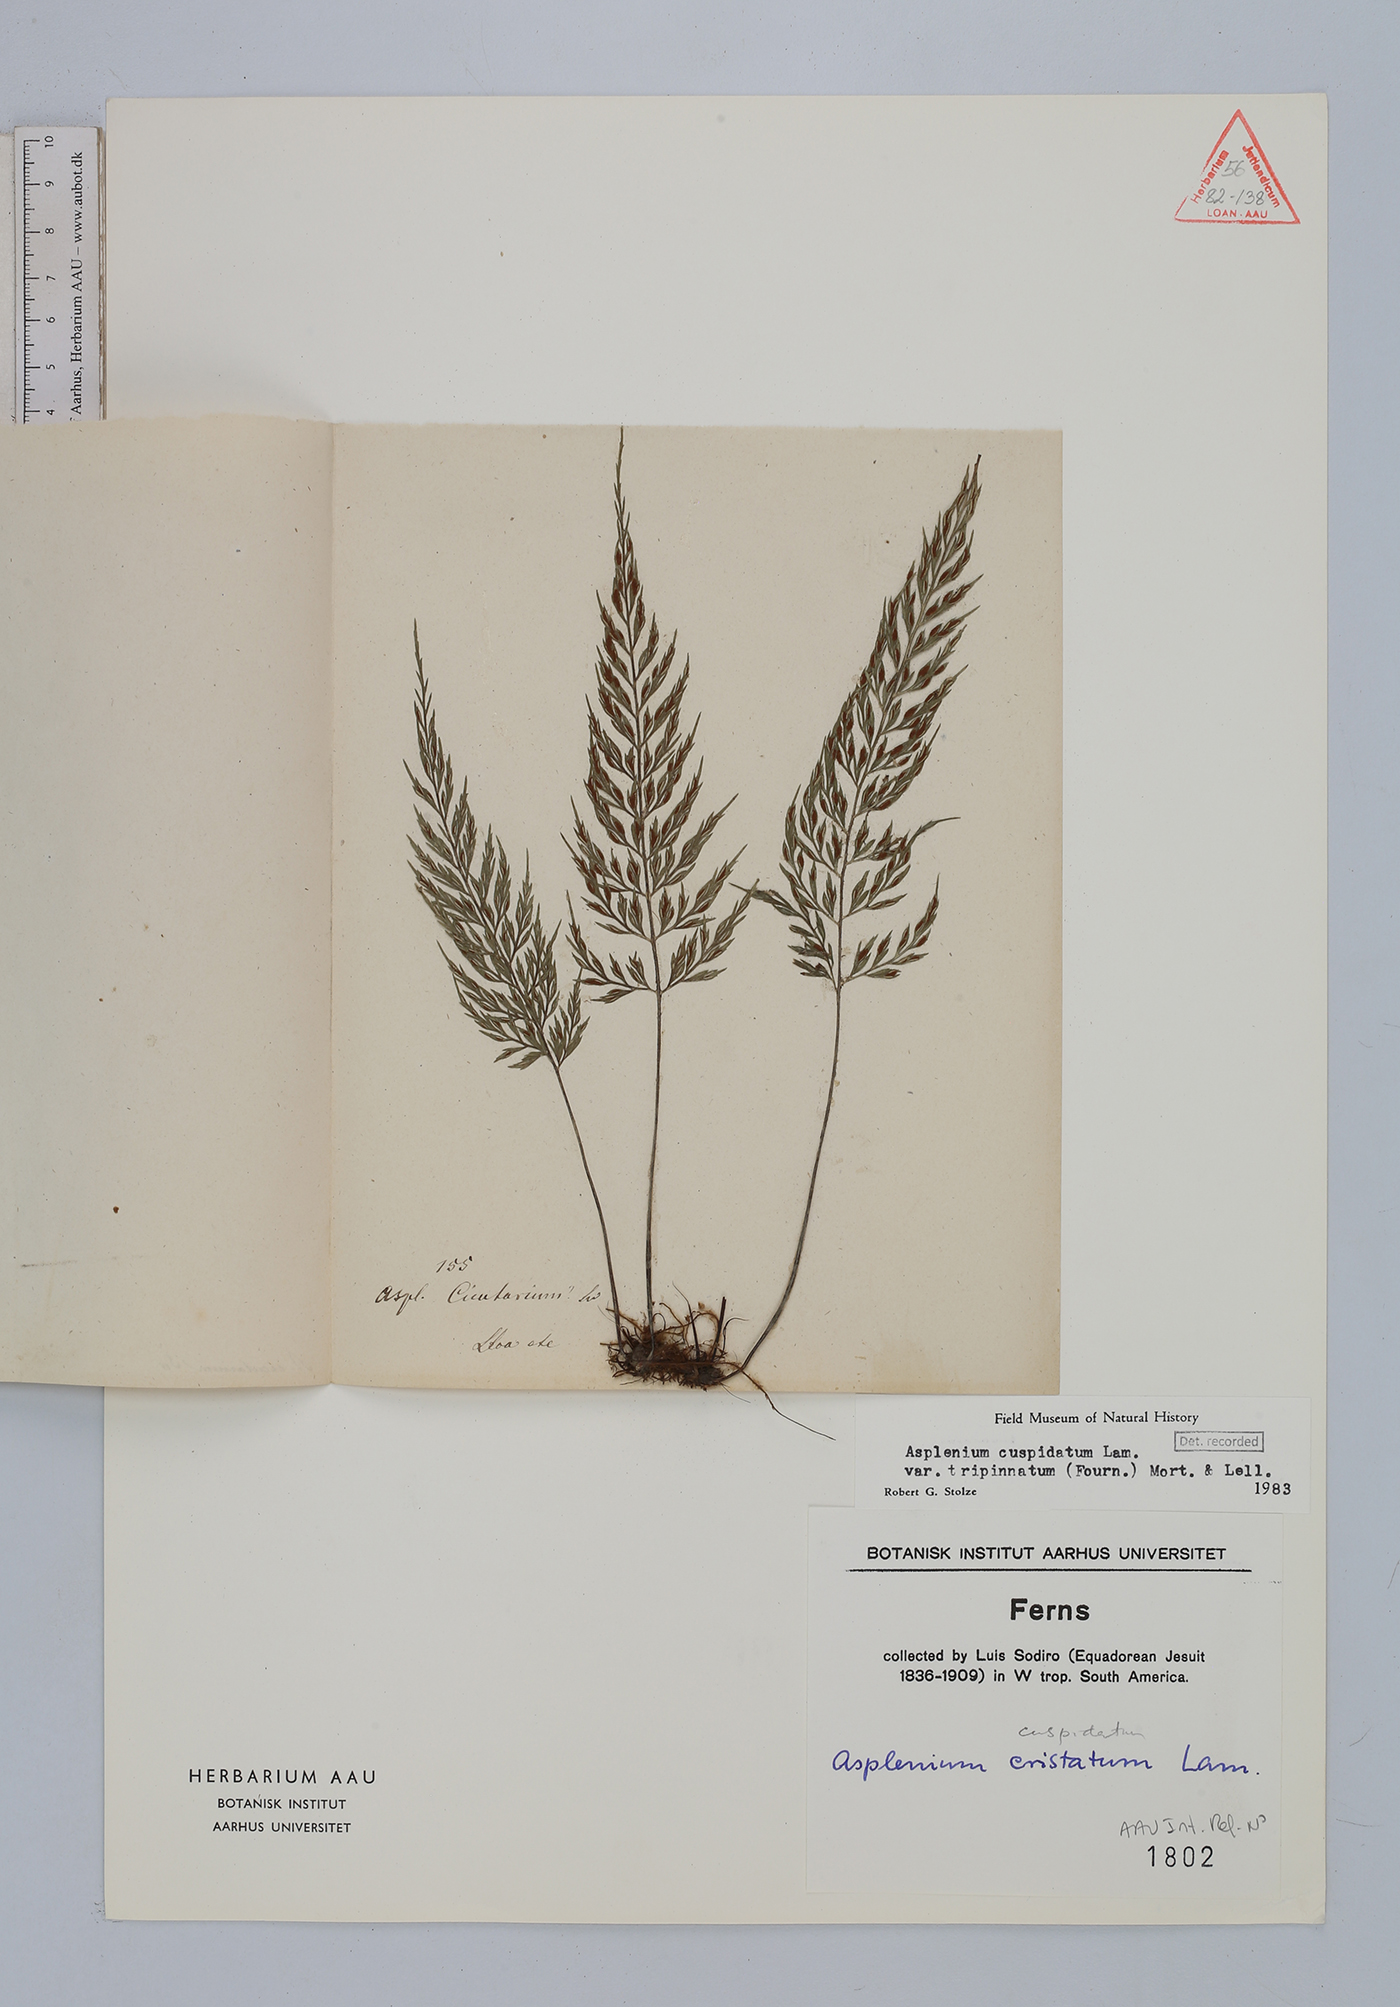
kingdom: Plantae
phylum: Tracheophyta
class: Polypodiopsida
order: Polypodiales
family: Aspleniaceae
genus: Asplenium
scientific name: Asplenium fragrans
